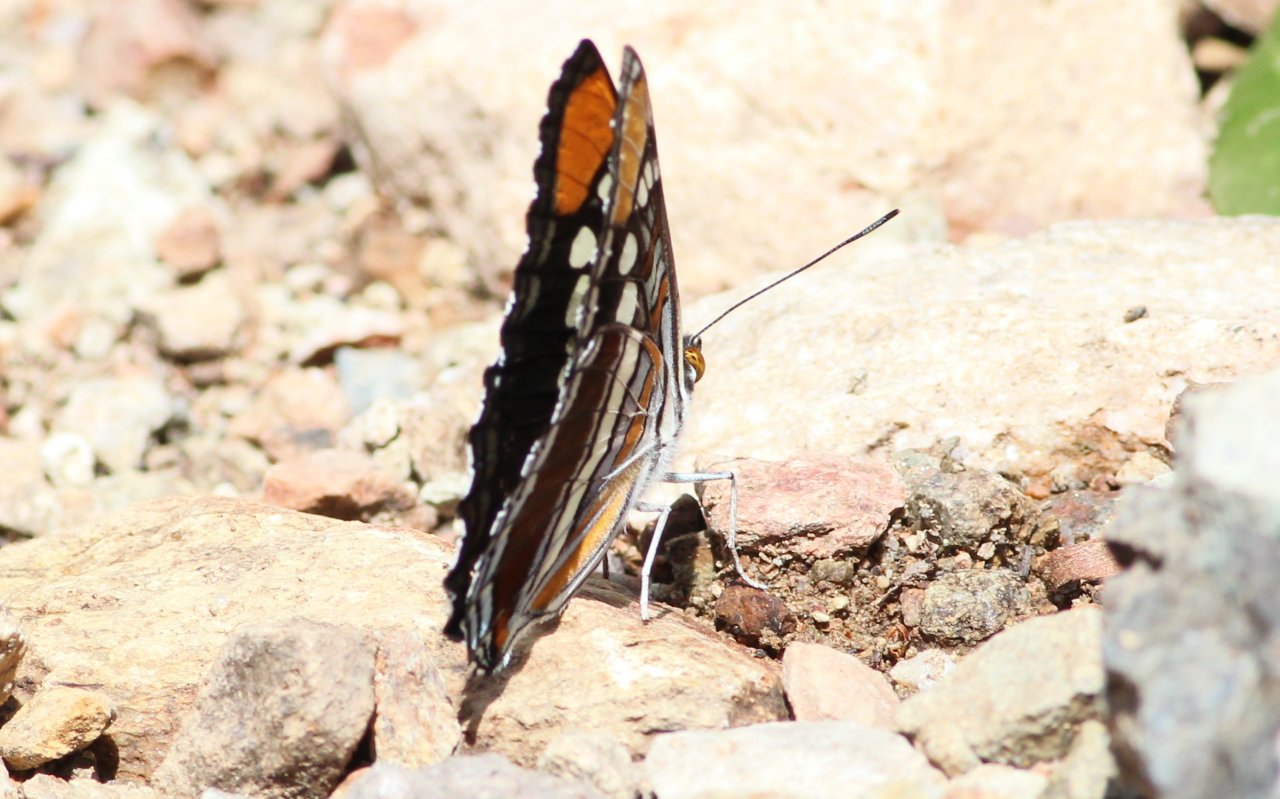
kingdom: Animalia
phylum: Arthropoda
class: Insecta
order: Lepidoptera
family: Nymphalidae
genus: Limenitis
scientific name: Limenitis bredowii
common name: Arizona Sister
